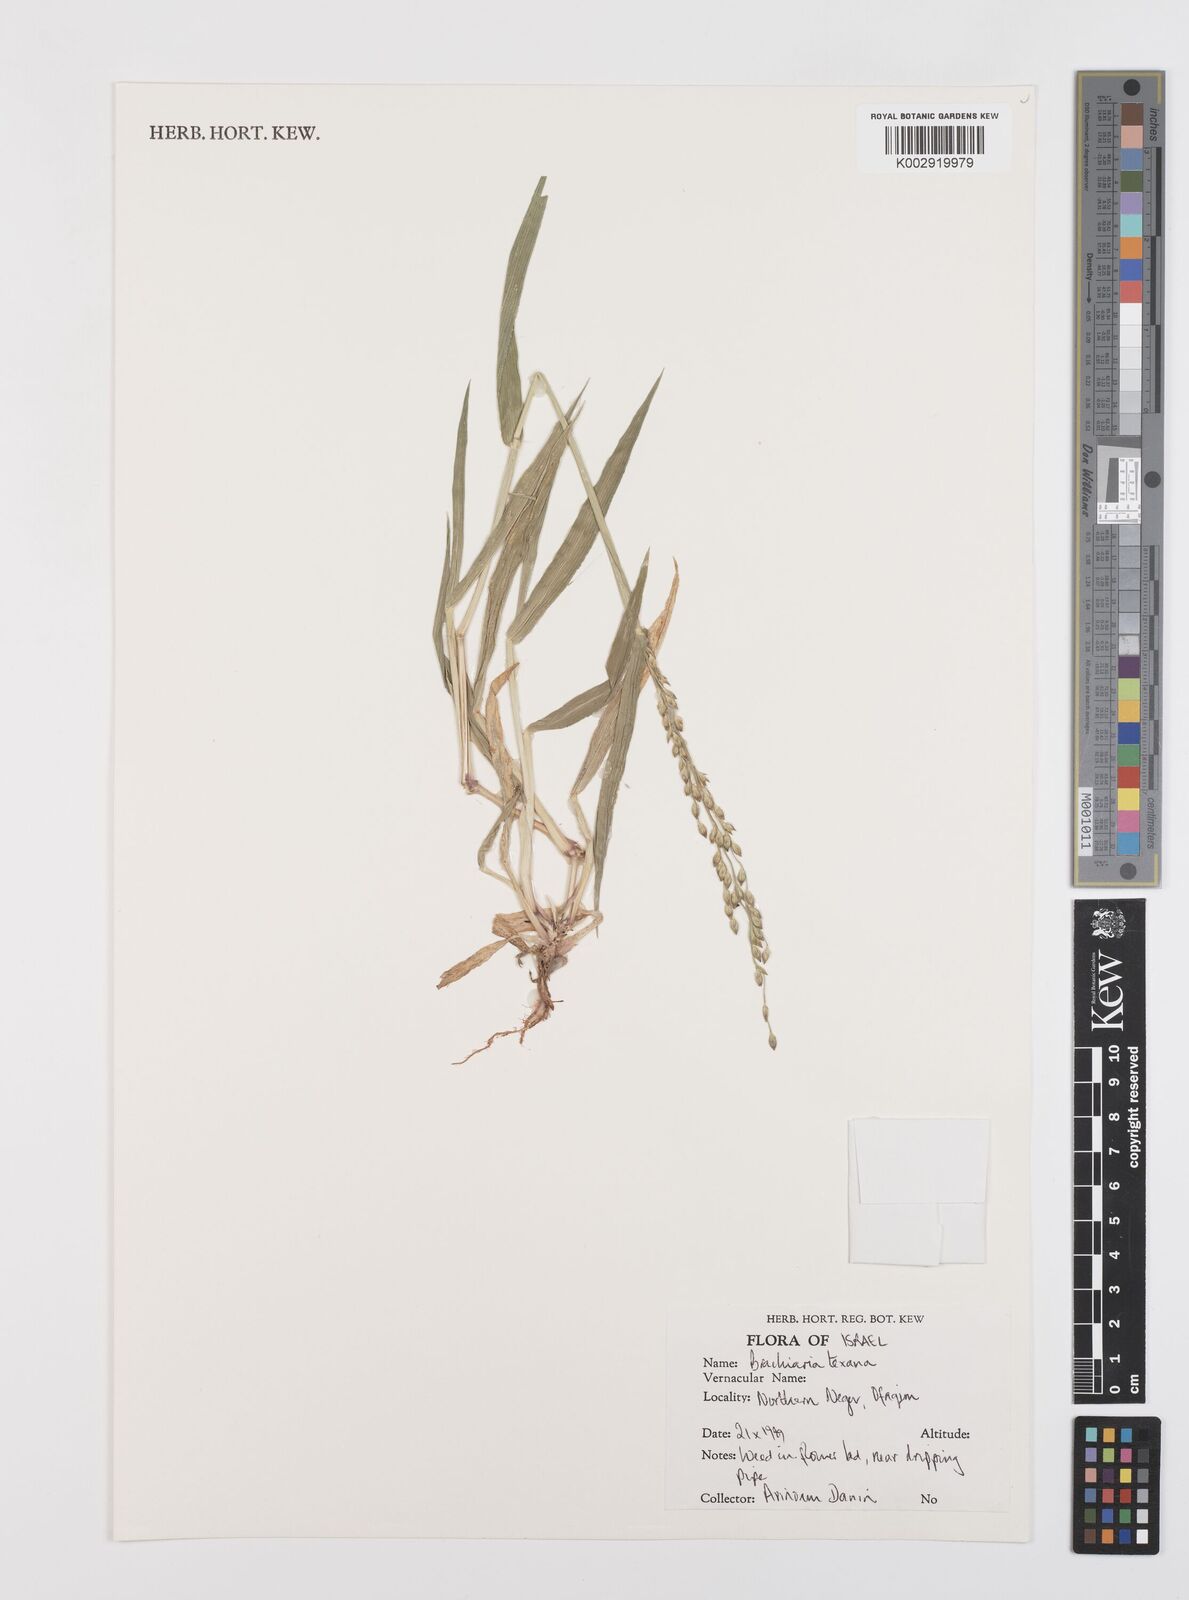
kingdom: Plantae
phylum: Tracheophyta
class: Liliopsida
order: Poales
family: Poaceae
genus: Urochloa
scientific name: Urochloa texana
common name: Texas millet
